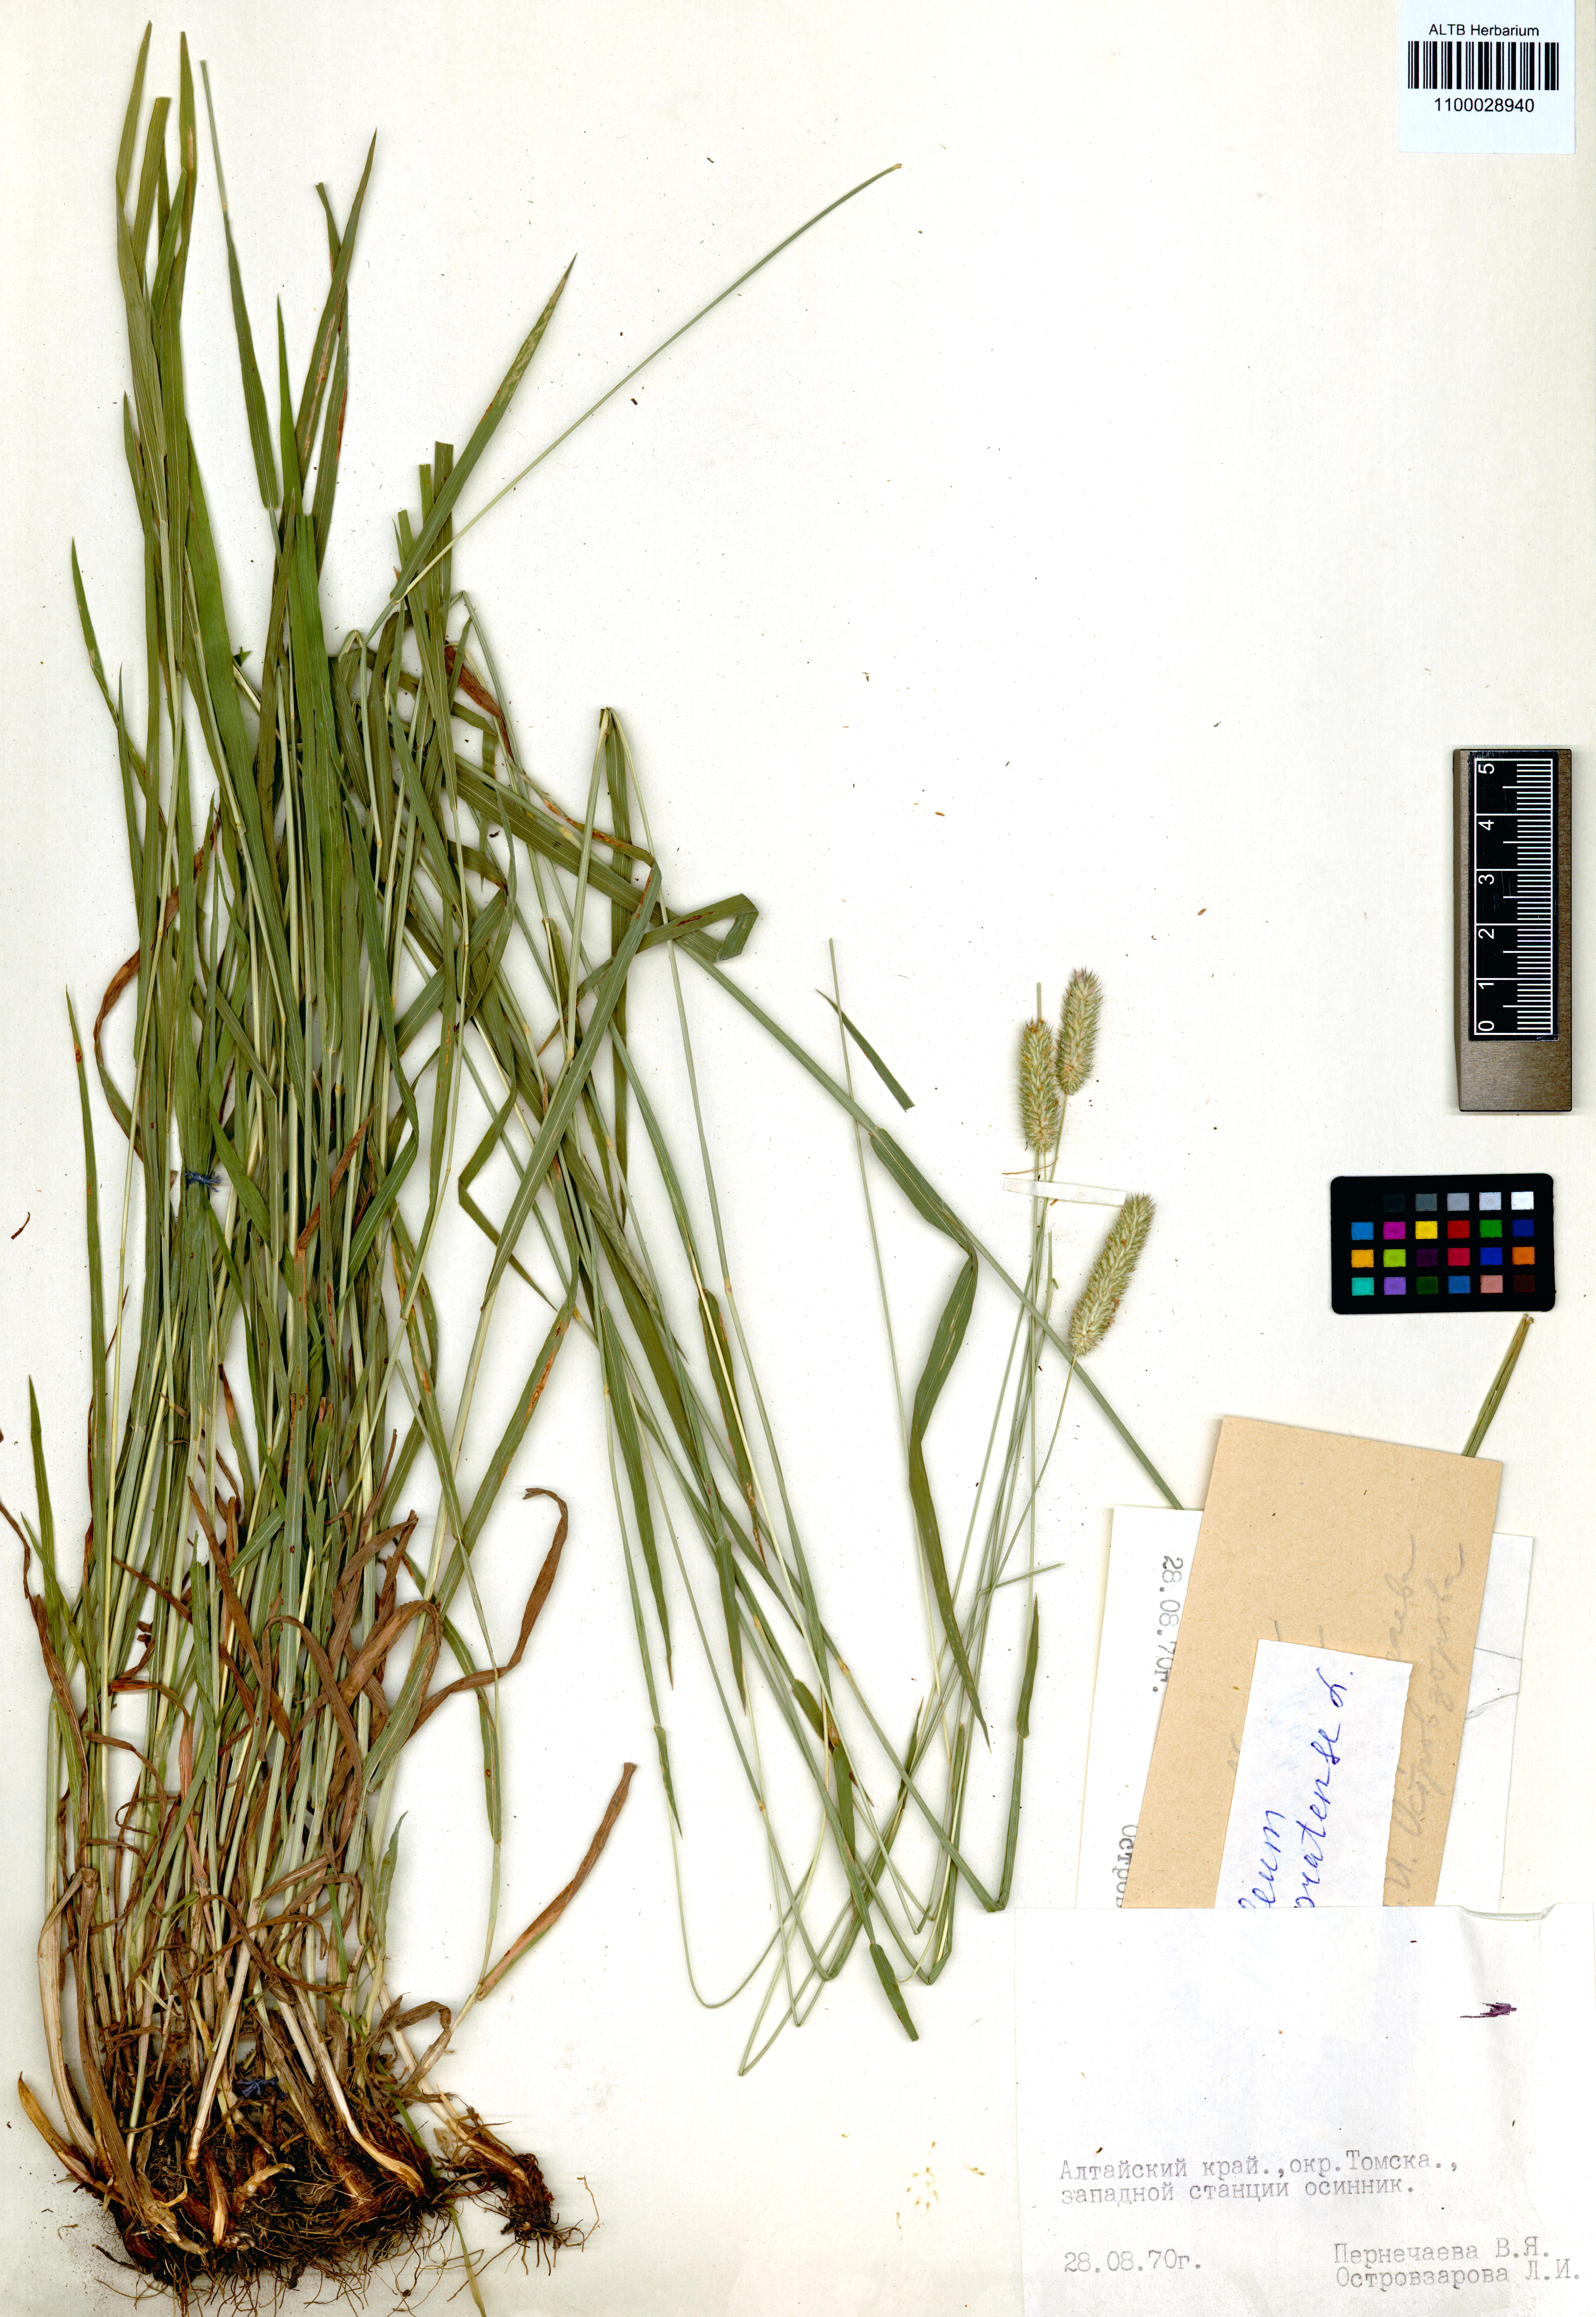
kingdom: Plantae
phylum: Tracheophyta
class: Liliopsida
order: Poales
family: Poaceae
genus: Phleum
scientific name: Phleum pratense
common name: Timothy grass
